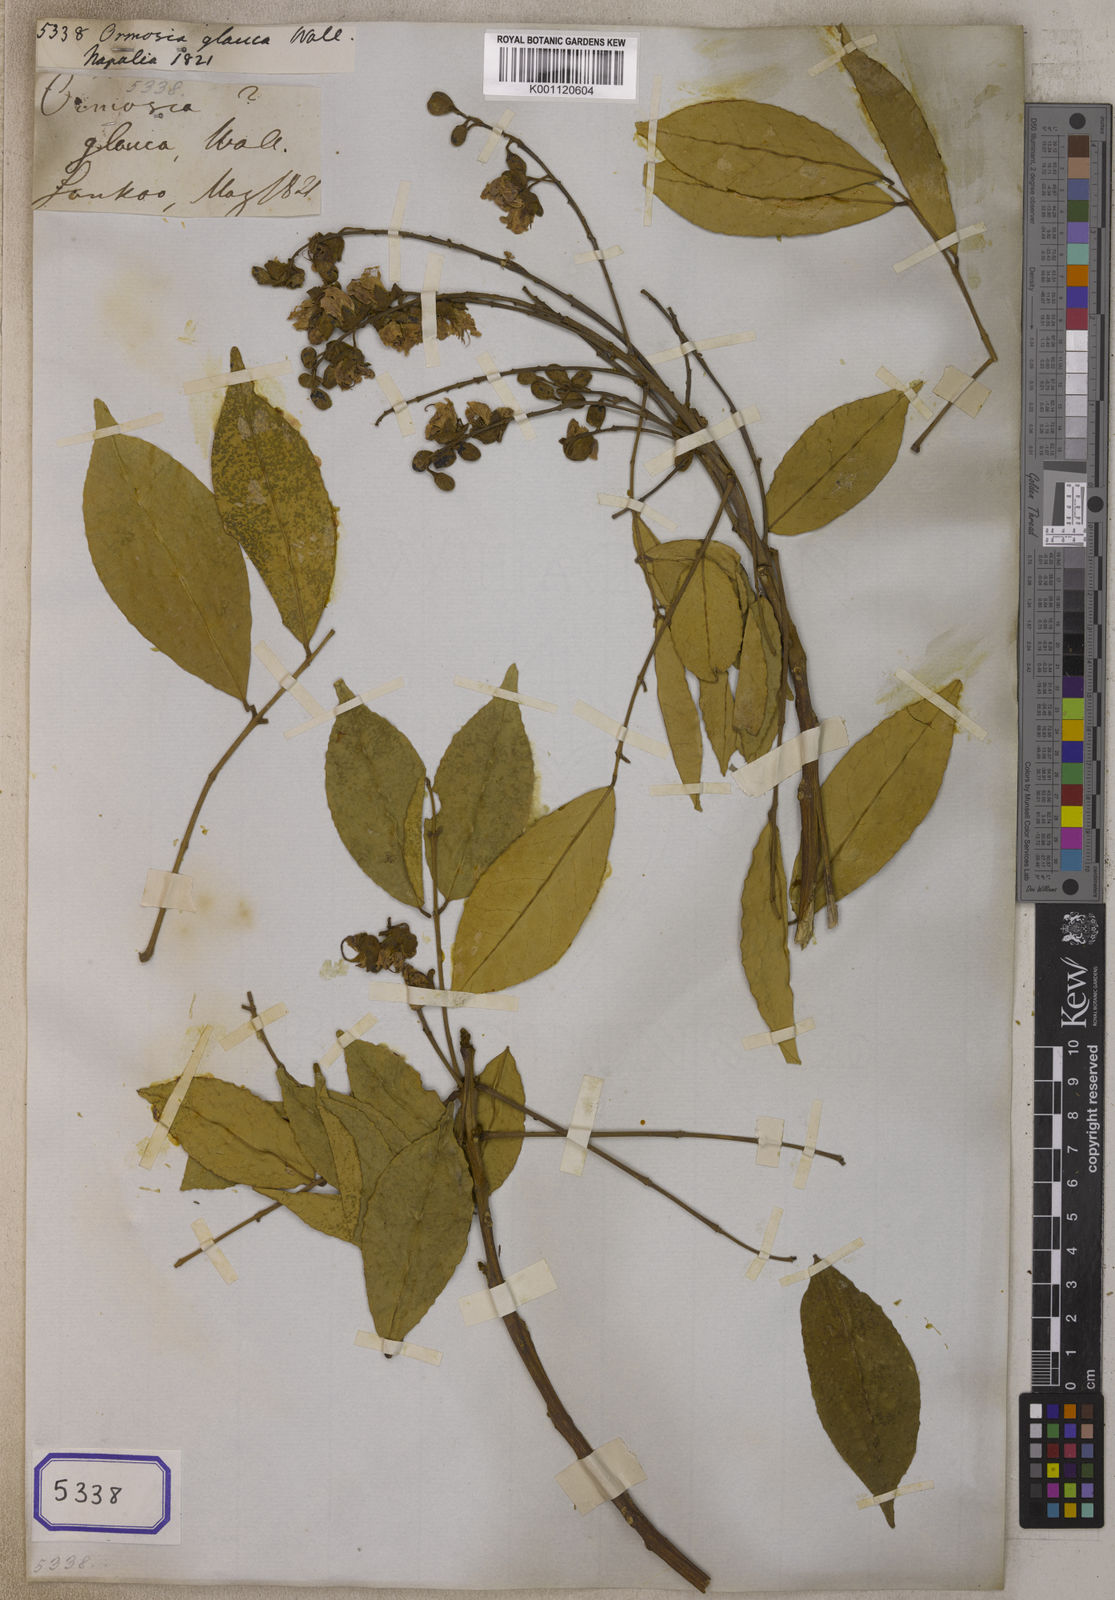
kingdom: Plantae
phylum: Tracheophyta
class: Magnoliopsida
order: Fabales
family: Fabaceae
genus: Ormosia
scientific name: Ormosia glauca
